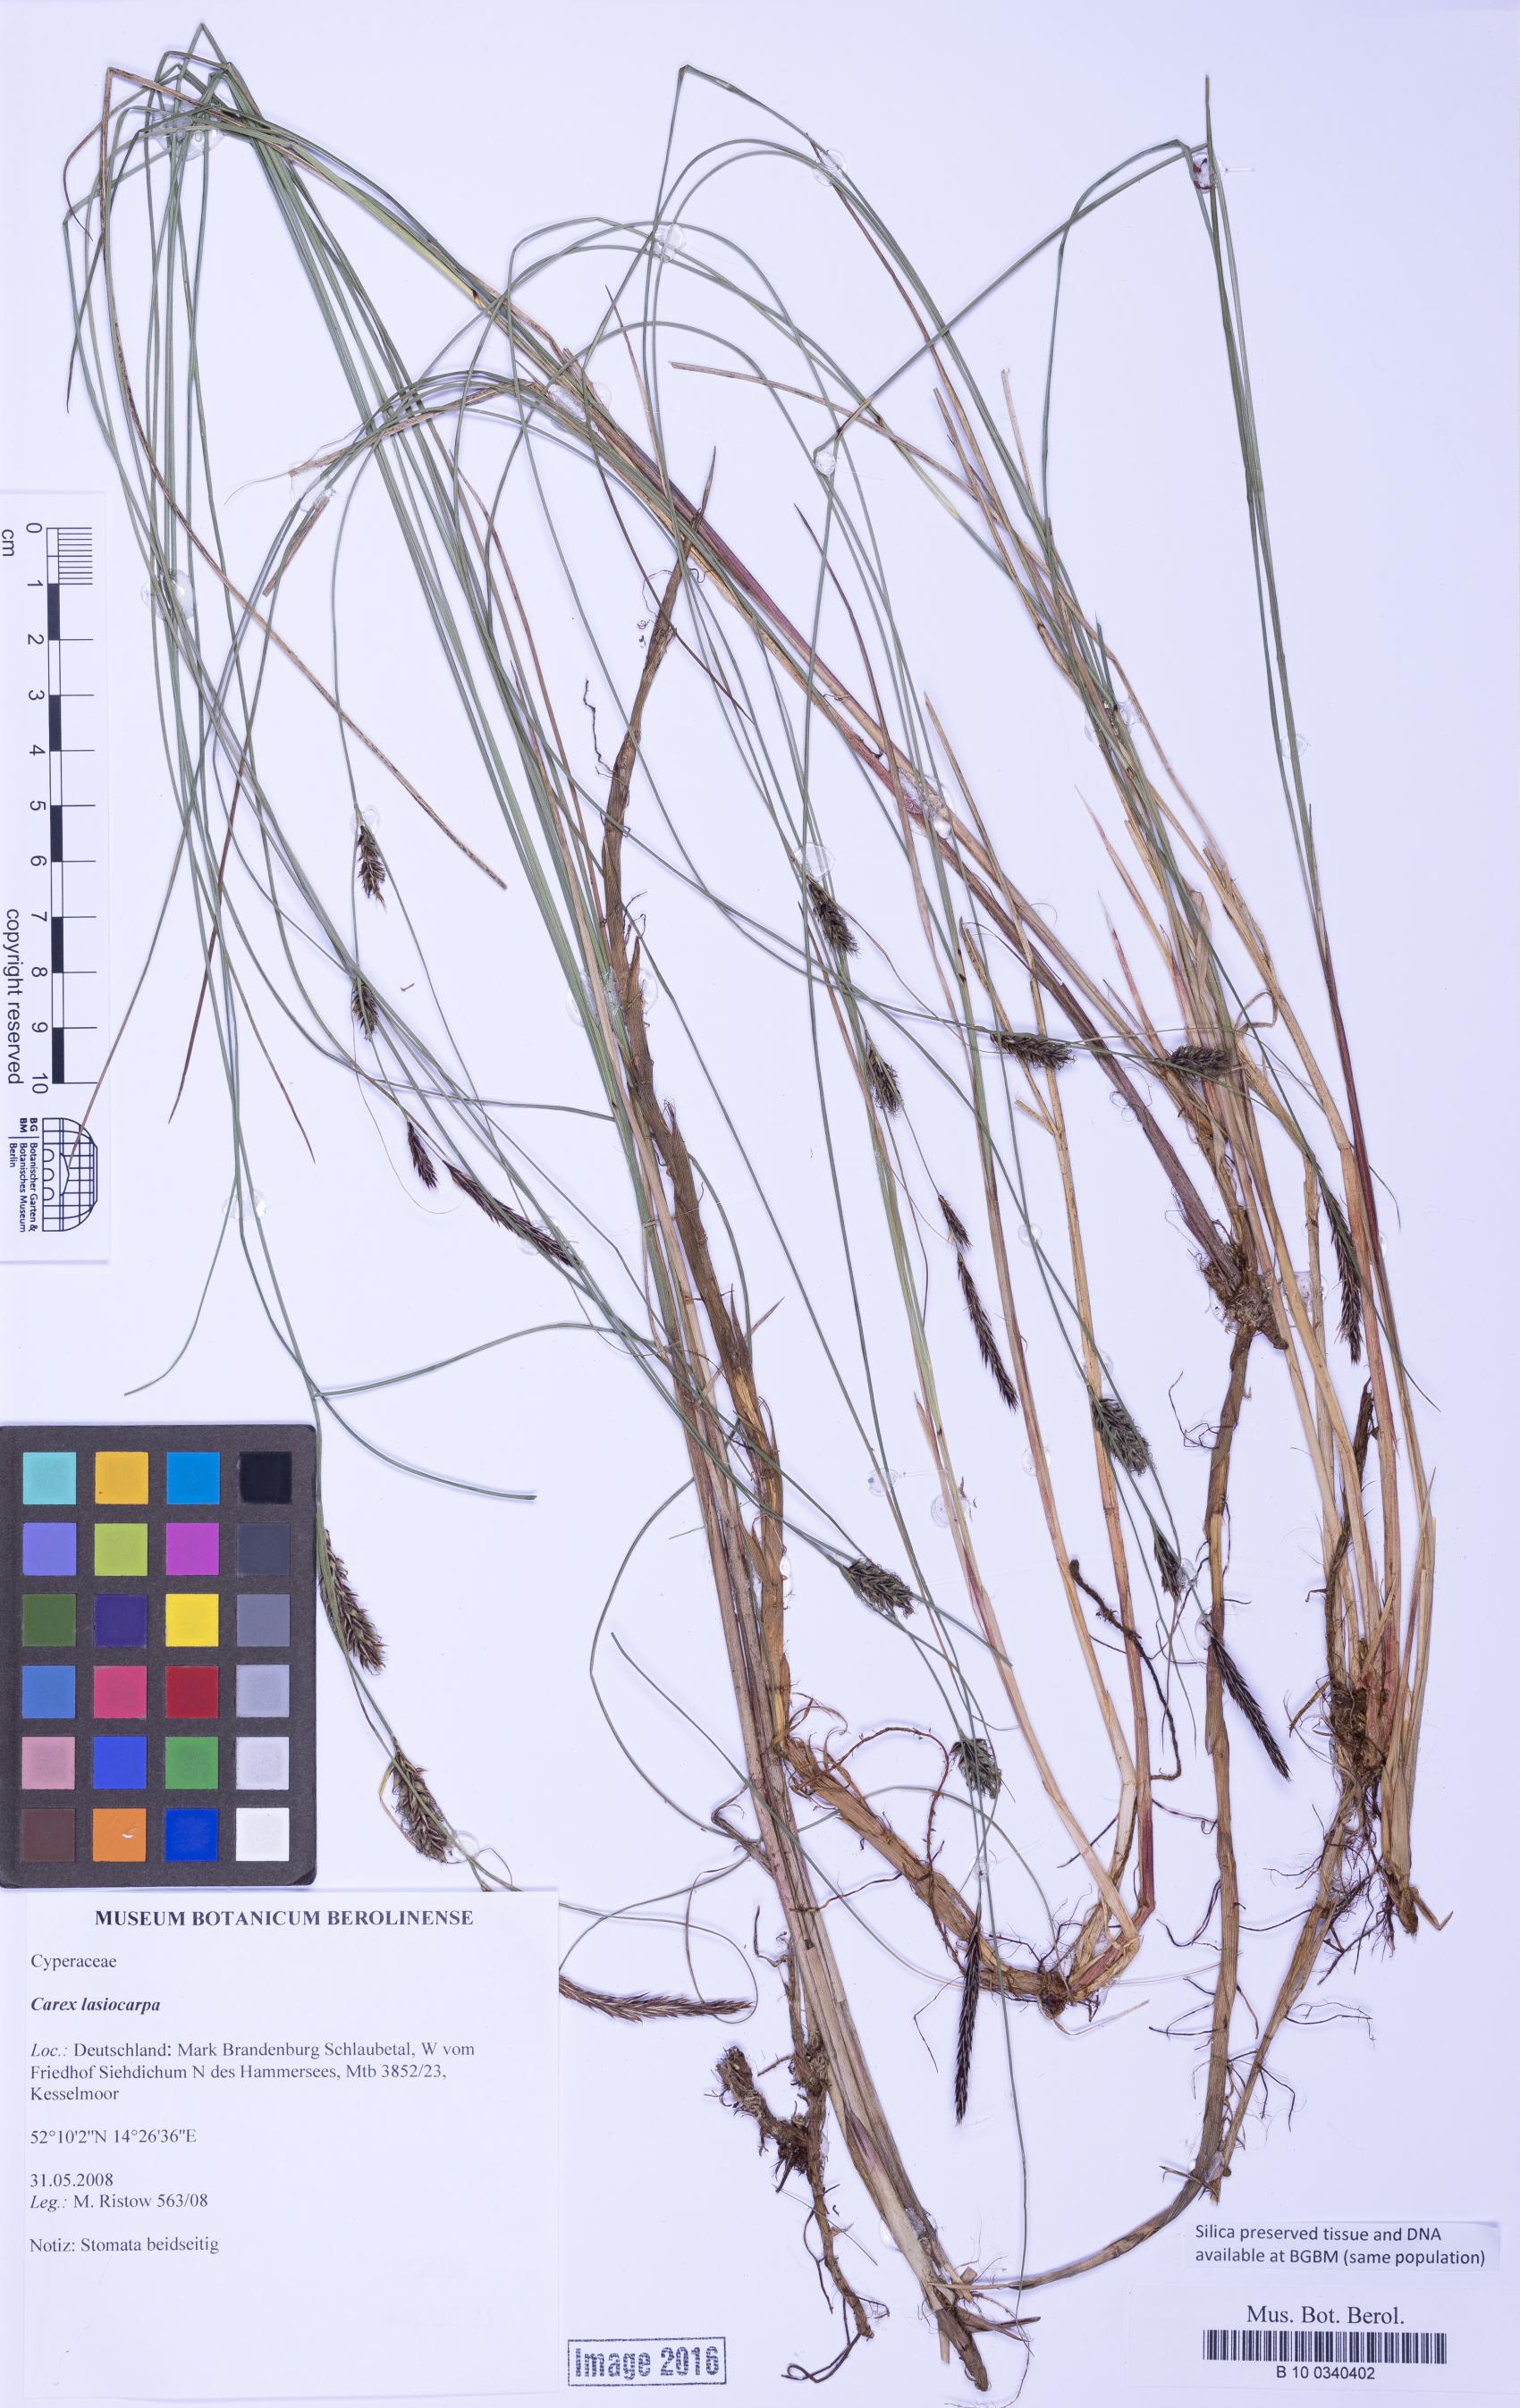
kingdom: Plantae
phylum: Tracheophyta
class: Liliopsida
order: Poales
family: Cyperaceae
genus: Carex
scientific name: Carex lasiocarpa
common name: Slender sedge
